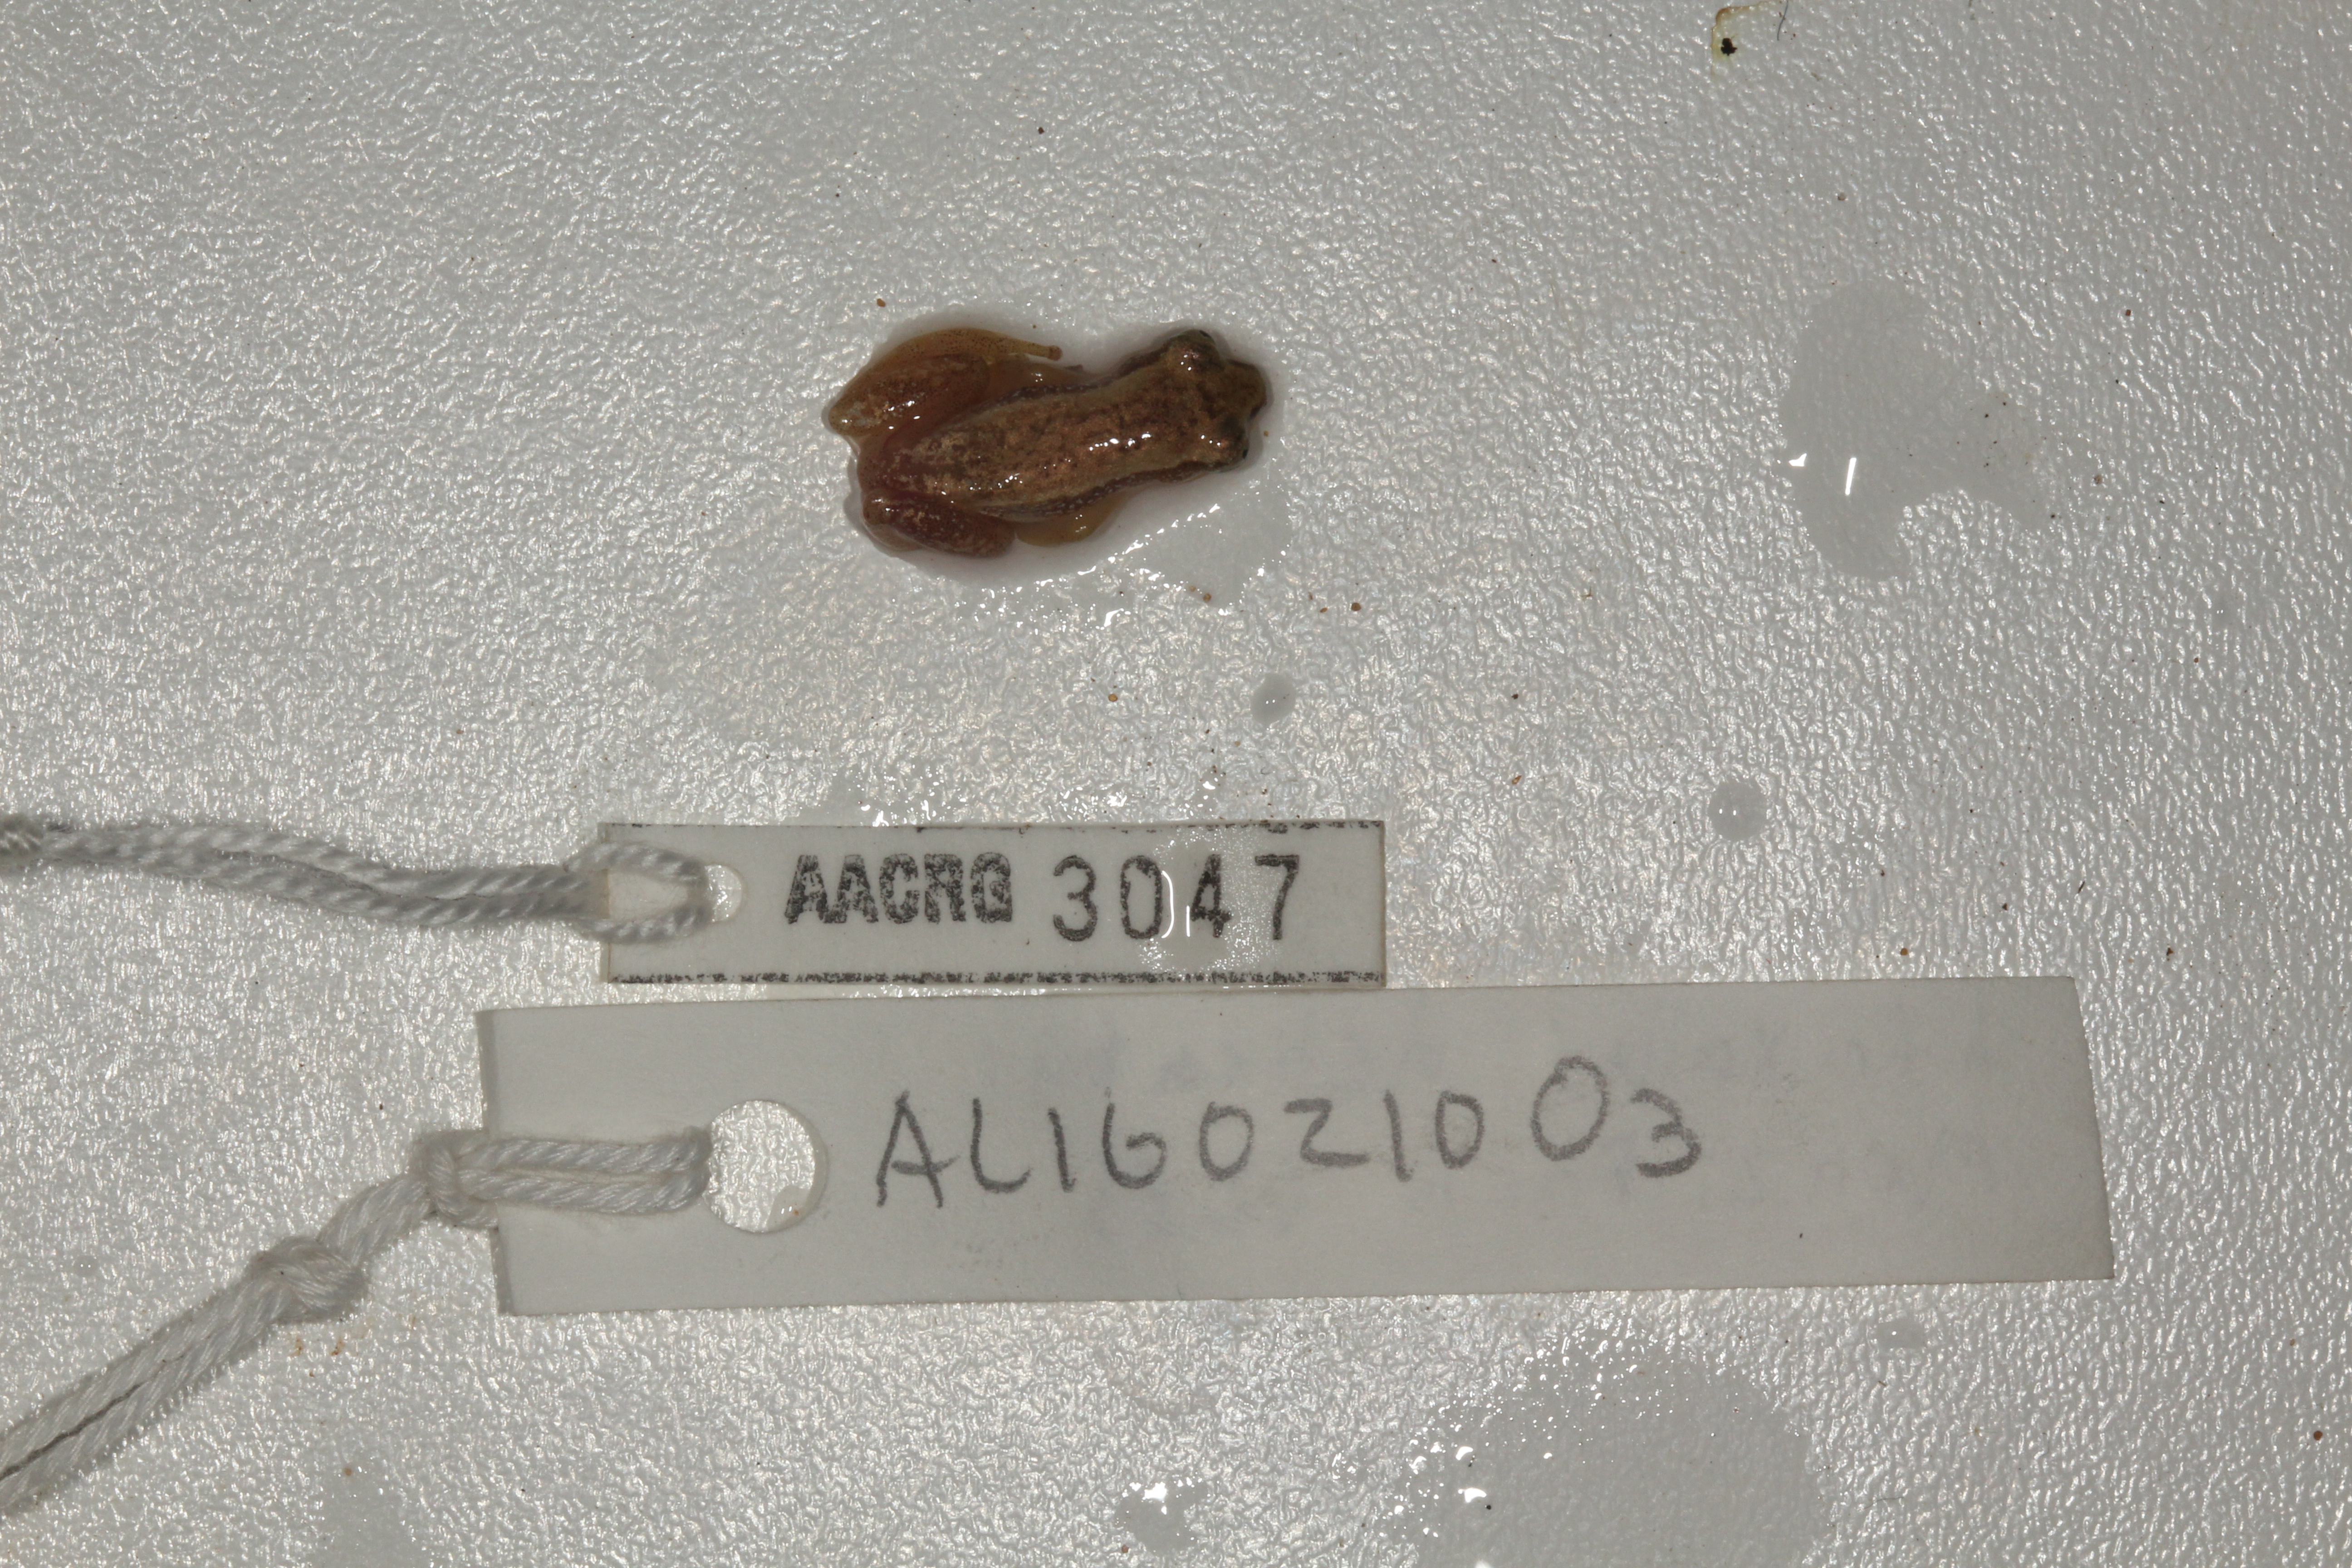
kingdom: Animalia
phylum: Chordata
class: Amphibia
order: Anura
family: Hyperoliidae
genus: Afrixalus
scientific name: Afrixalus delicatus
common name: Delicate leaf-folding frog
